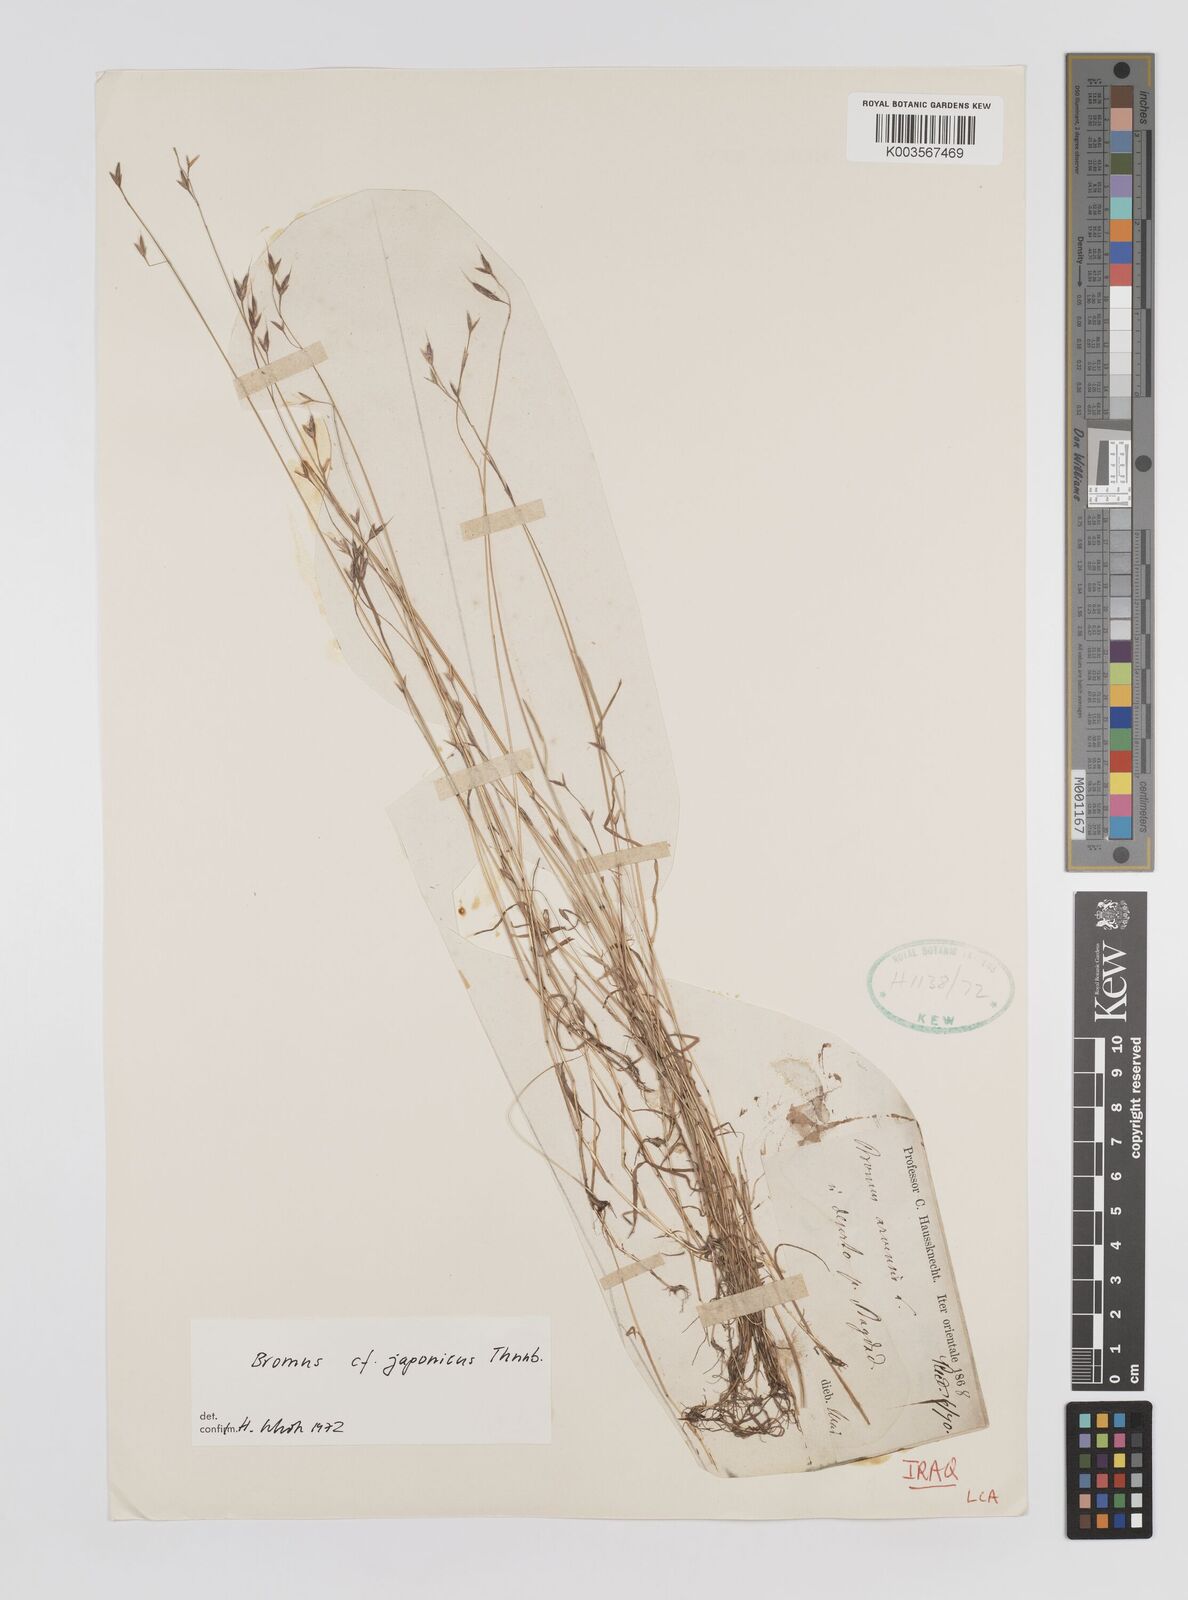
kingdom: Plantae
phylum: Tracheophyta
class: Liliopsida
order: Poales
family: Poaceae
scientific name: Poaceae
